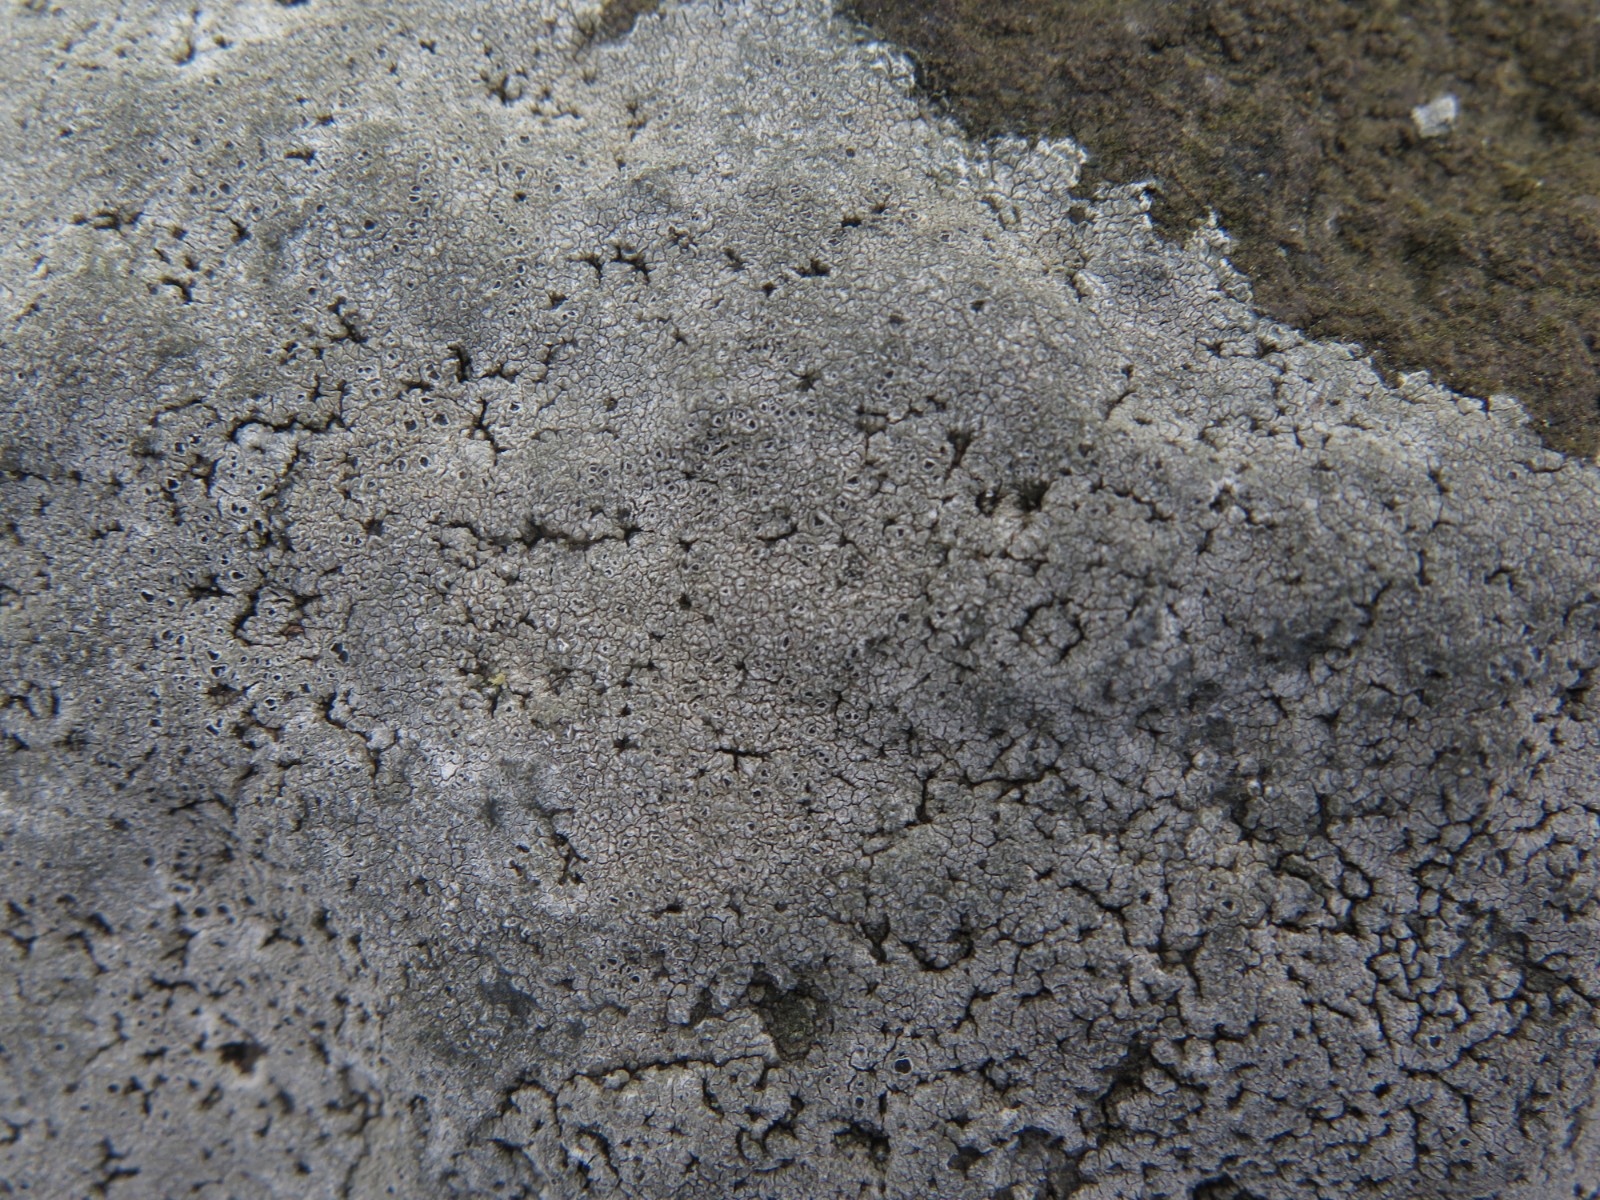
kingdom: Fungi
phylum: Ascomycota
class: Lecanoromycetes
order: Pertusariales
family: Megasporaceae
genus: Circinaria
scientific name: Circinaria leprosescens
